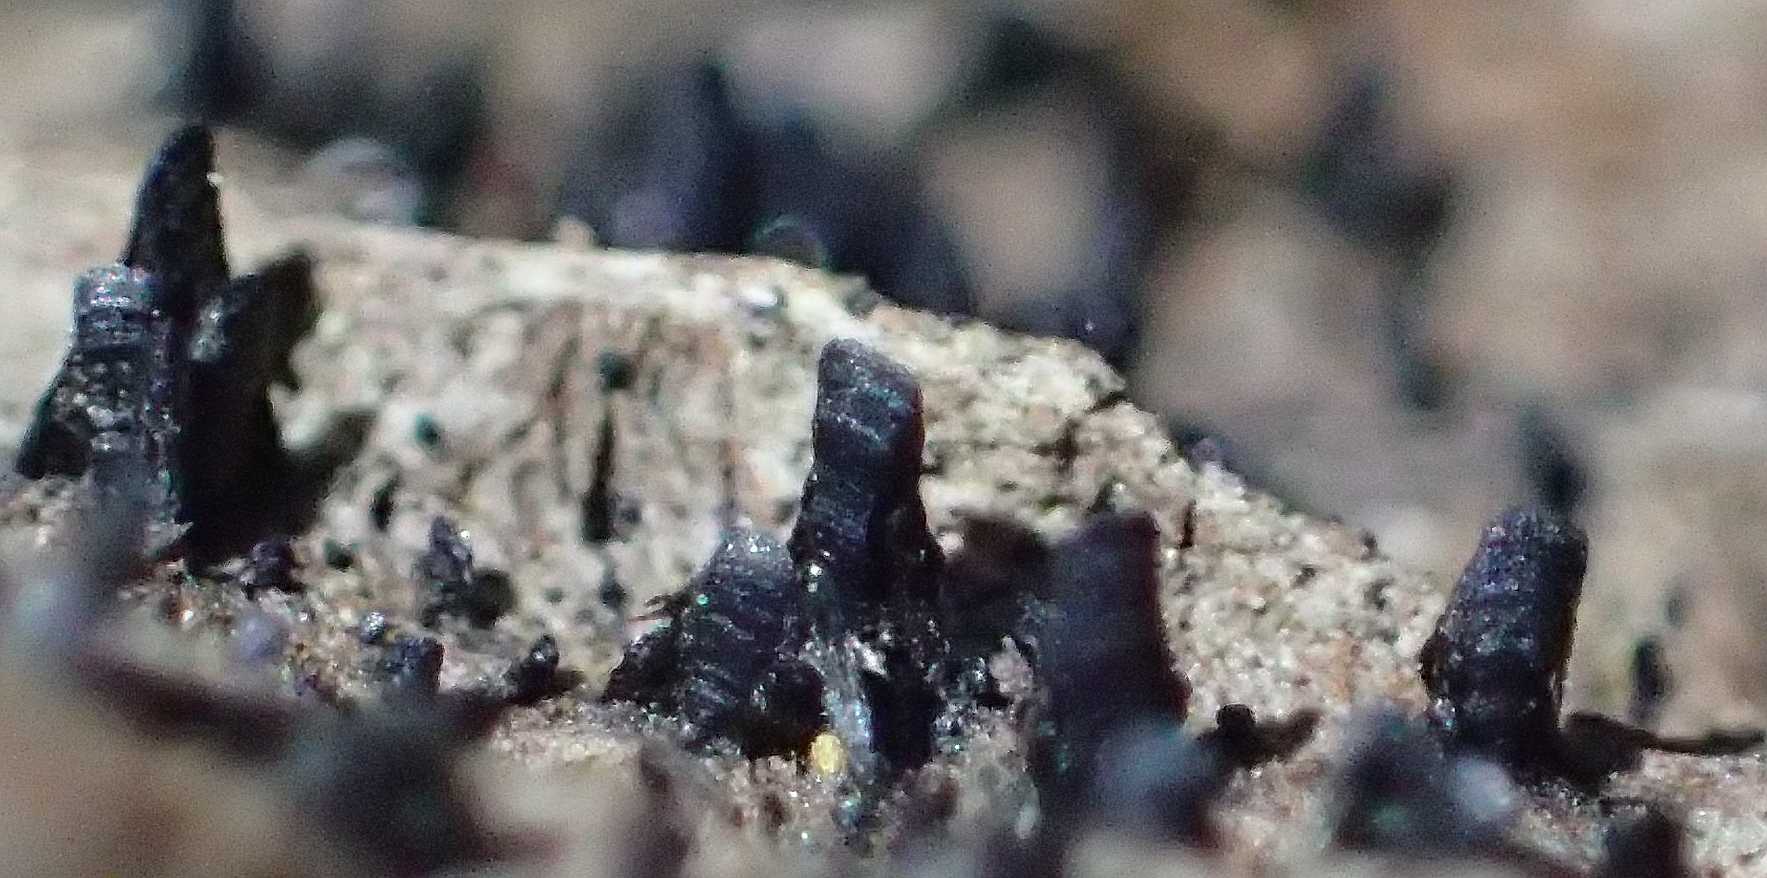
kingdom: Fungi
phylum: Ascomycota
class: Eurotiomycetes
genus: Glyphium
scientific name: Glyphium elatum
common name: kuløkse
